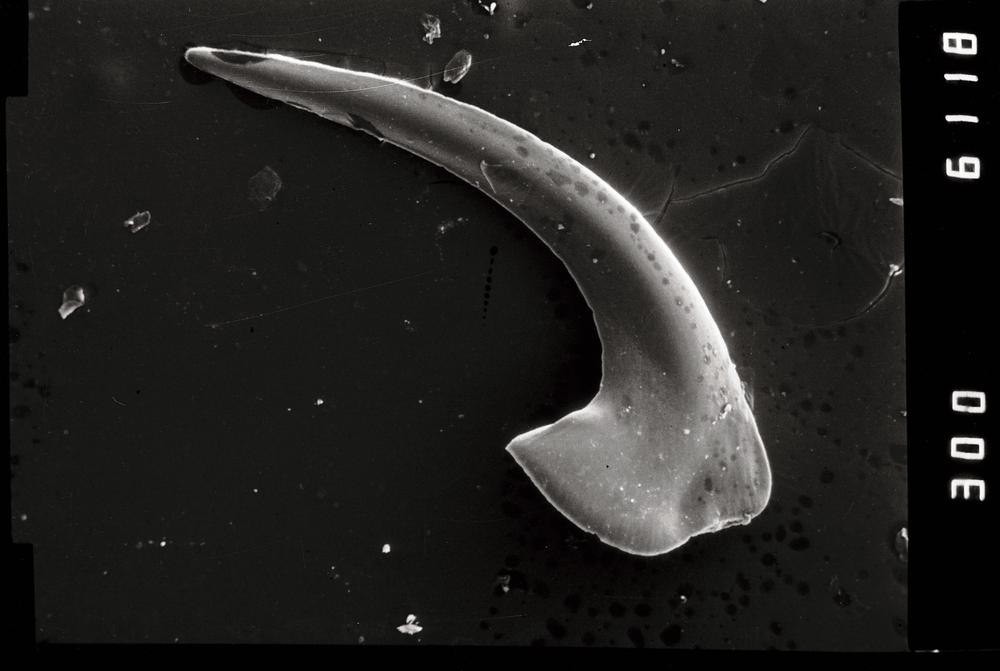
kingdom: Animalia
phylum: Chordata
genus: Paroistodus
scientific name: Paroistodus Drepanodus proteus
